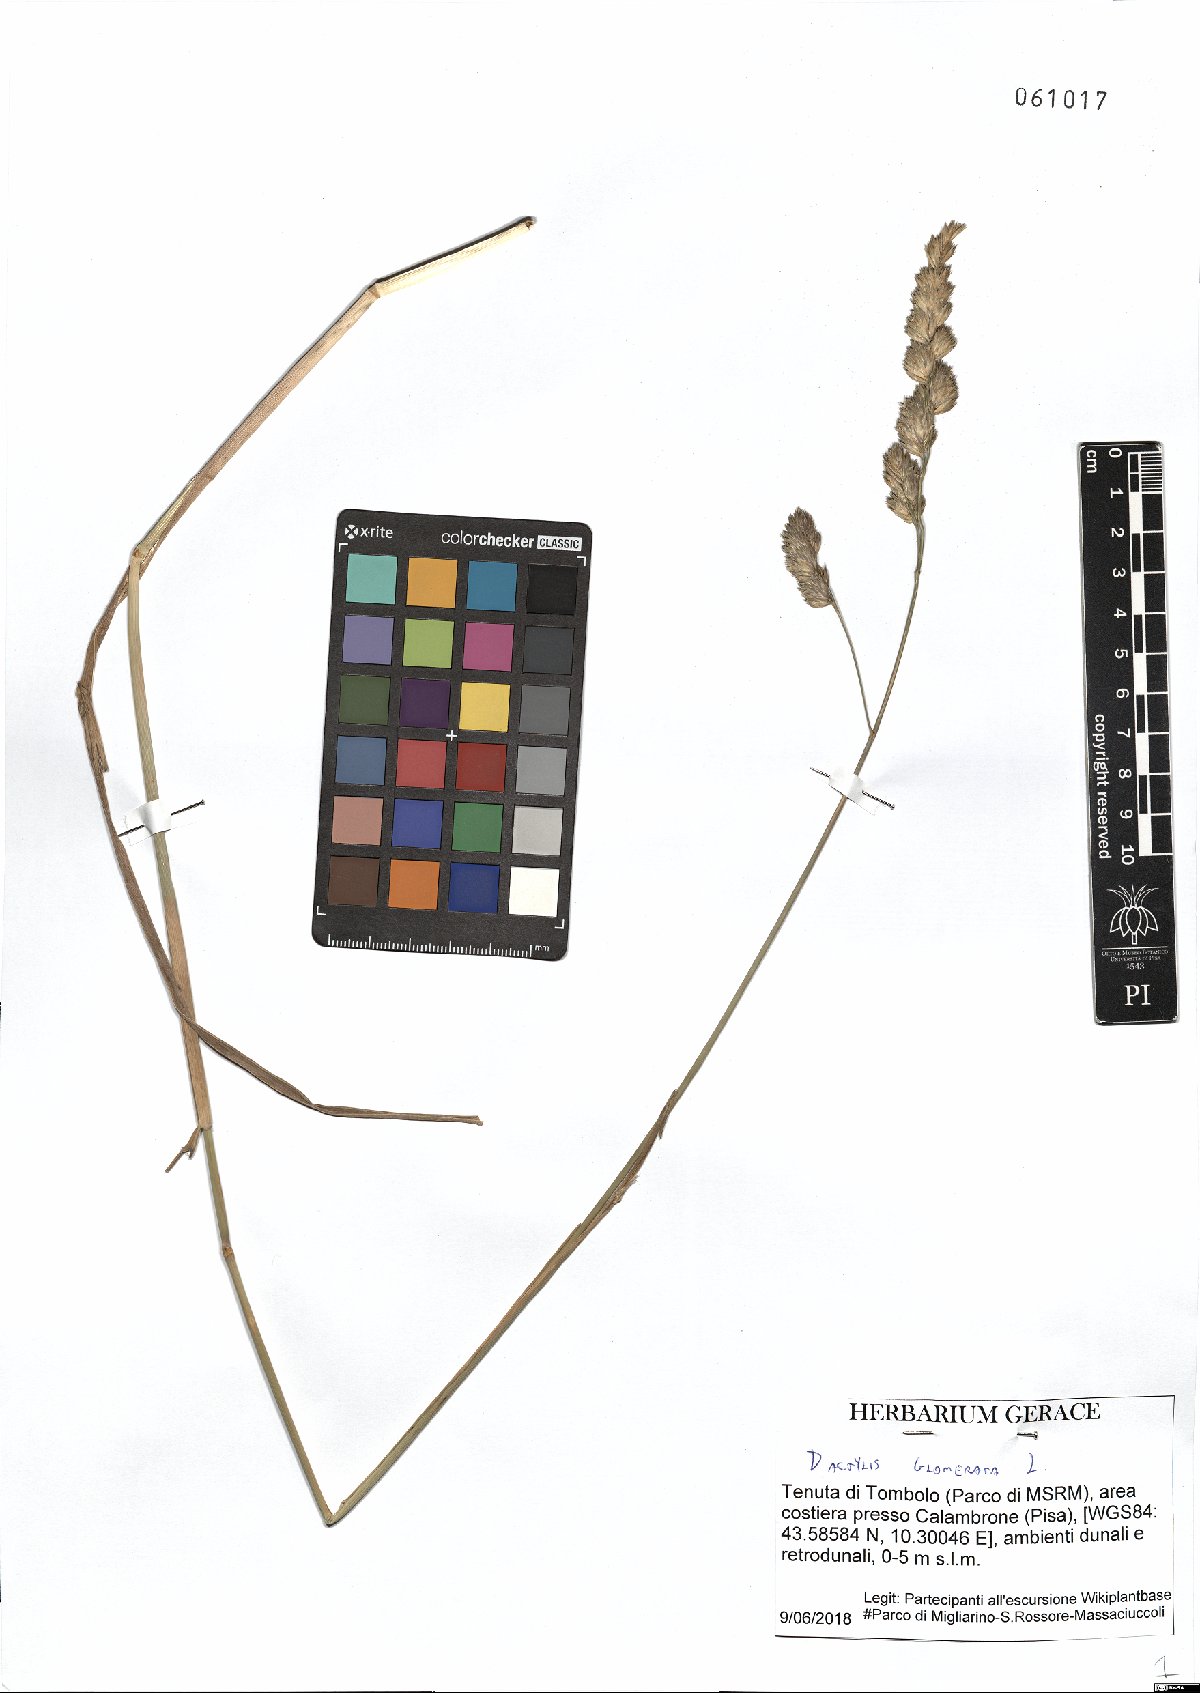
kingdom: Plantae
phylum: Tracheophyta
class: Liliopsida
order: Poales
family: Poaceae
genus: Dactylis
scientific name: Dactylis glomerata
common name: Orchardgrass
